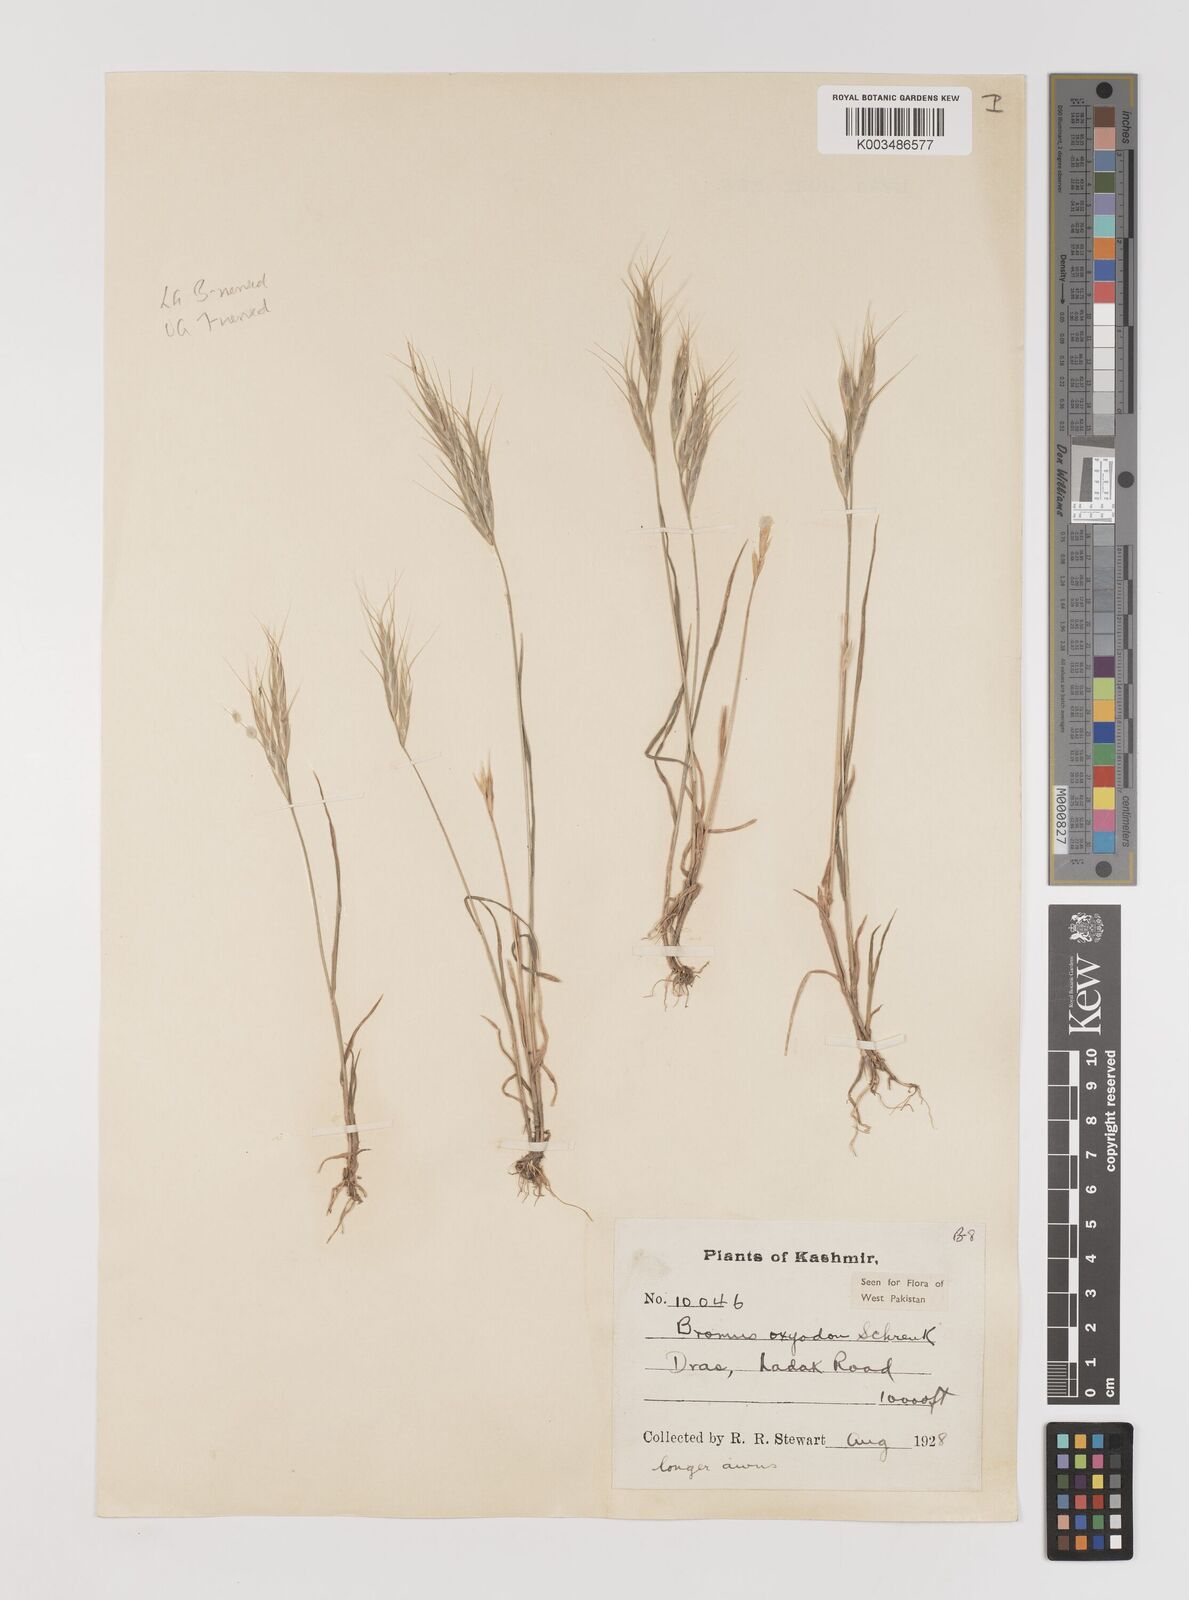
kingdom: Plantae
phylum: Tracheophyta
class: Liliopsida
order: Poales
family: Poaceae
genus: Bromus
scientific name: Bromus oxyodon
